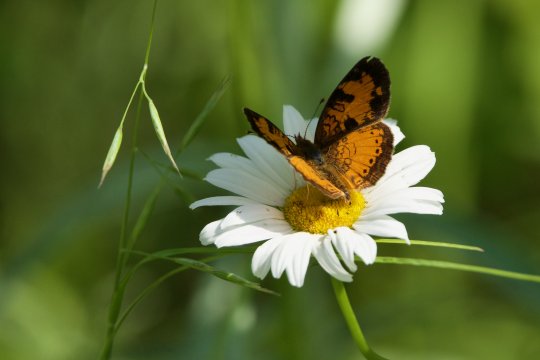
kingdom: Animalia
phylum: Arthropoda
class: Insecta
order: Lepidoptera
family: Nymphalidae
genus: Phyciodes
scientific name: Phyciodes tharos
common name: Northern Crescent
